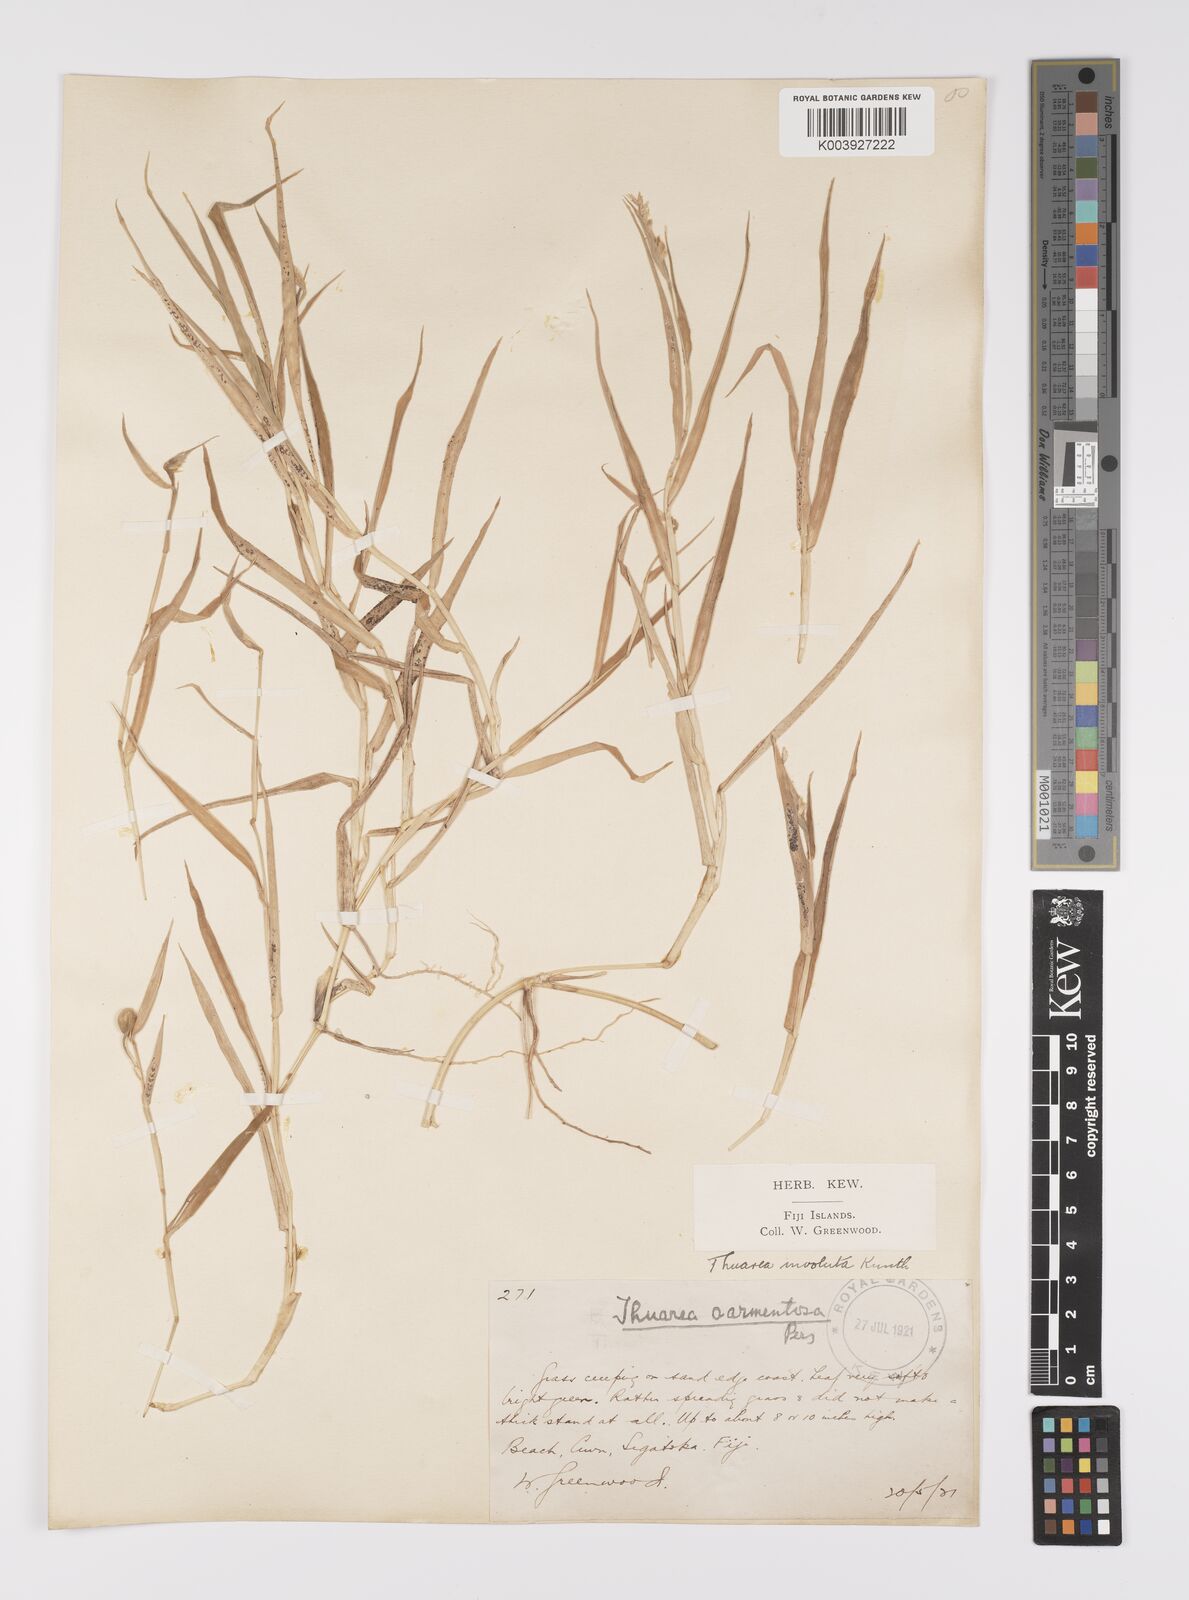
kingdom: Plantae
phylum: Tracheophyta
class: Liliopsida
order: Poales
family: Poaceae
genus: Thuarea
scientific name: Thuarea involuta
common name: Tropical beach grass
